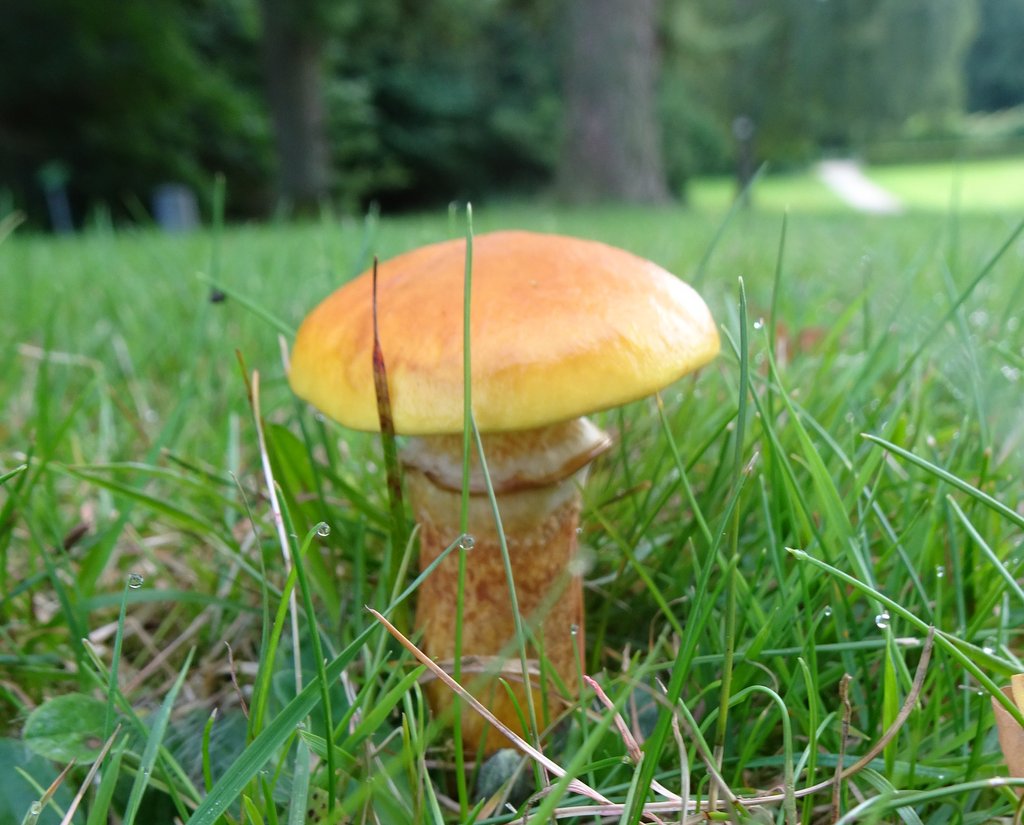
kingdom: Fungi
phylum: Basidiomycota
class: Agaricomycetes
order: Boletales
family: Suillaceae
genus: Suillus
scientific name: Suillus grevillei
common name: lærke-slimrørhat
